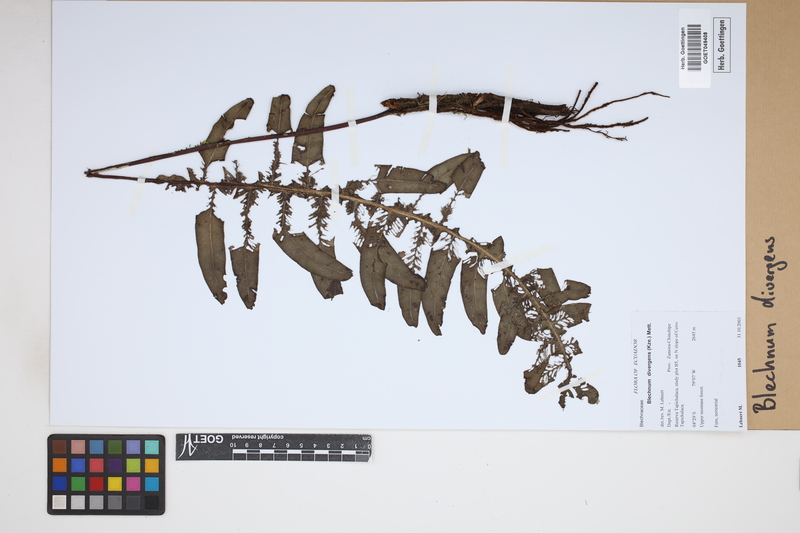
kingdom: Plantae
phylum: Tracheophyta
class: Polypodiopsida
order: Polypodiales
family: Blechnaceae
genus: Austroblechnum
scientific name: Austroblechnum divergens
